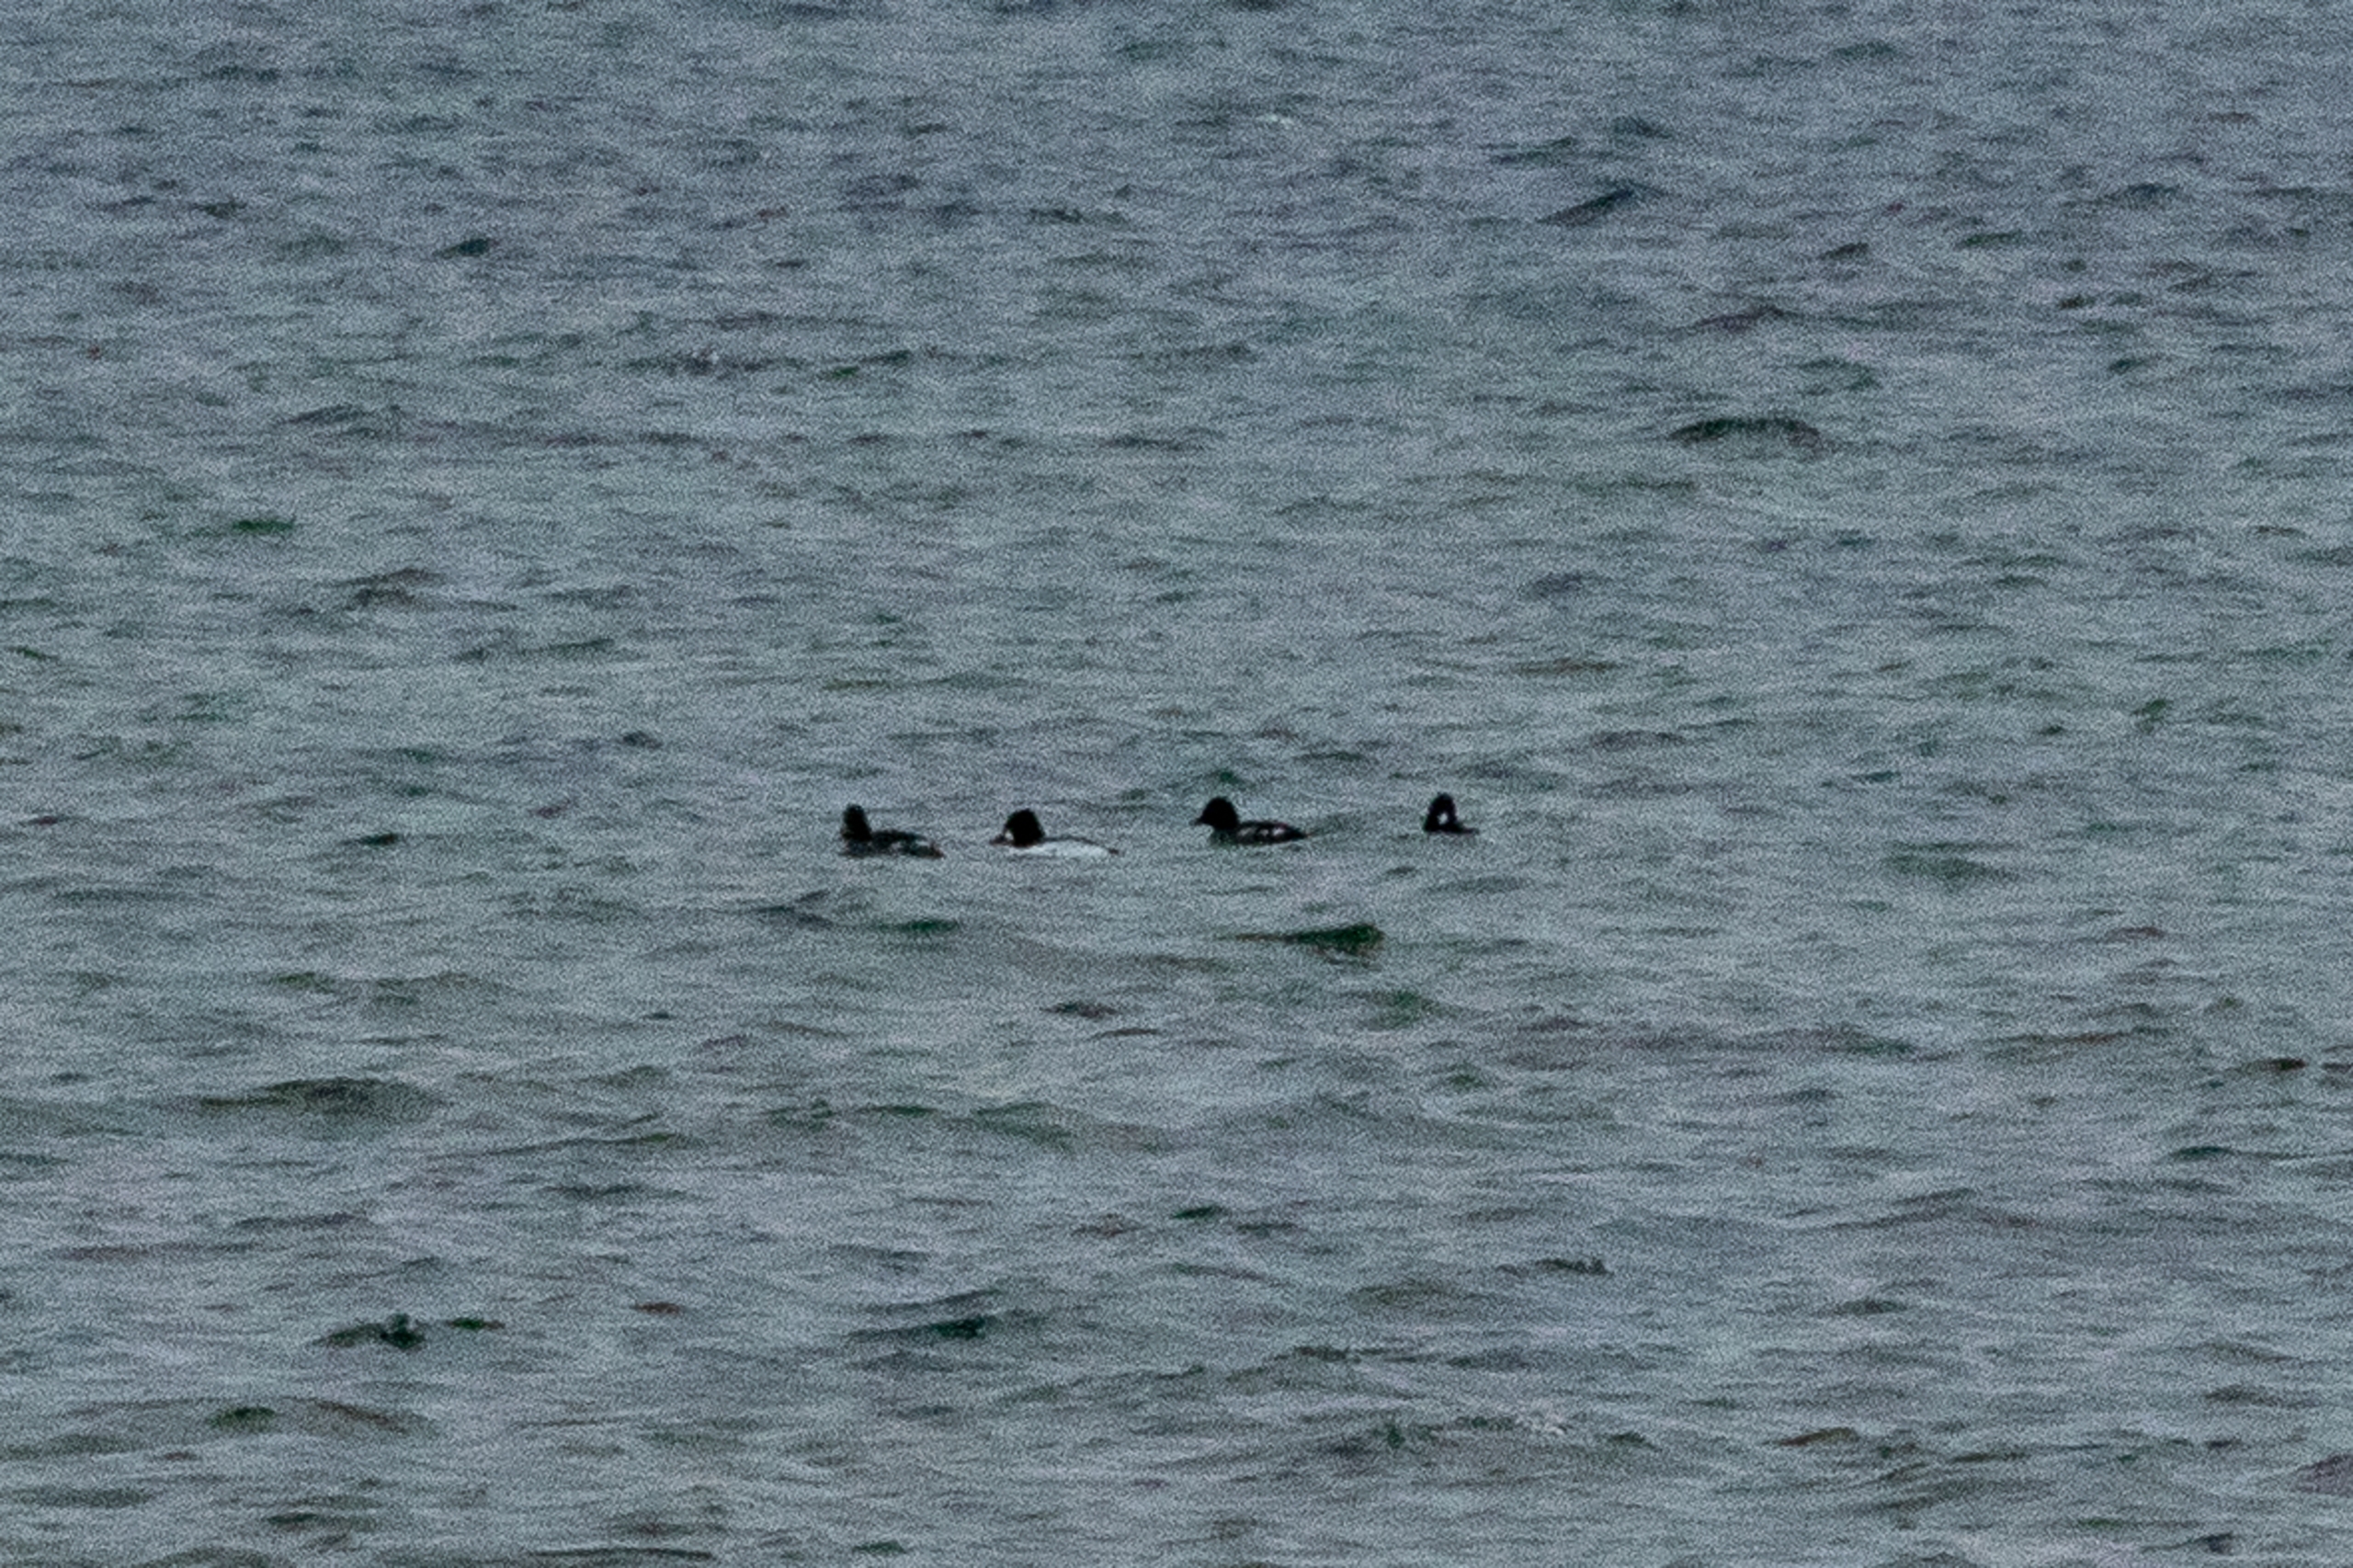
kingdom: Animalia
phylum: Chordata
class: Aves
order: Anseriformes
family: Anatidae
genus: Bucephala
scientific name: Bucephala clangula
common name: Hvinand
